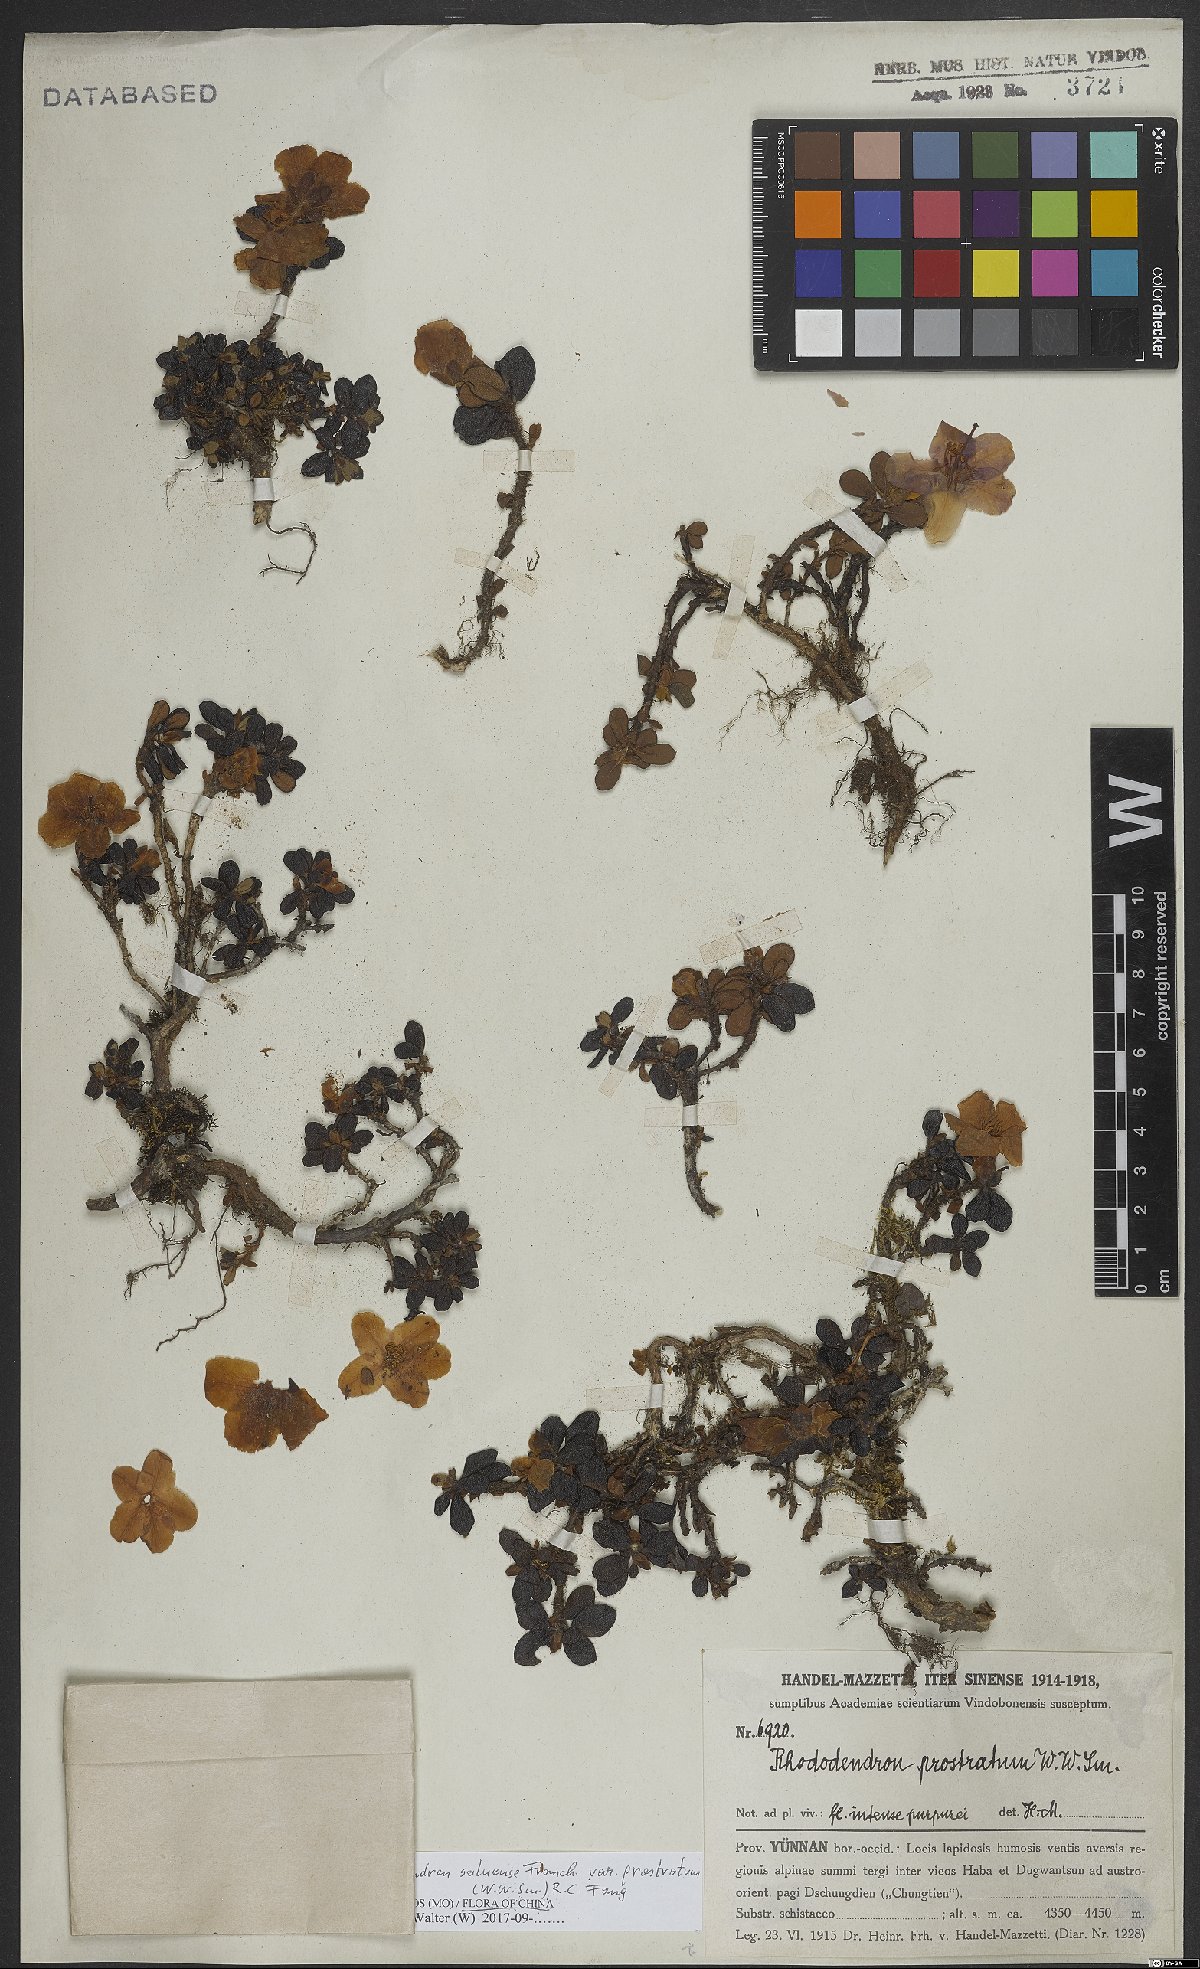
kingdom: Plantae
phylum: Tracheophyta
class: Magnoliopsida
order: Ericales
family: Ericaceae
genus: Rhododendron
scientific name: Rhododendron saluenense
